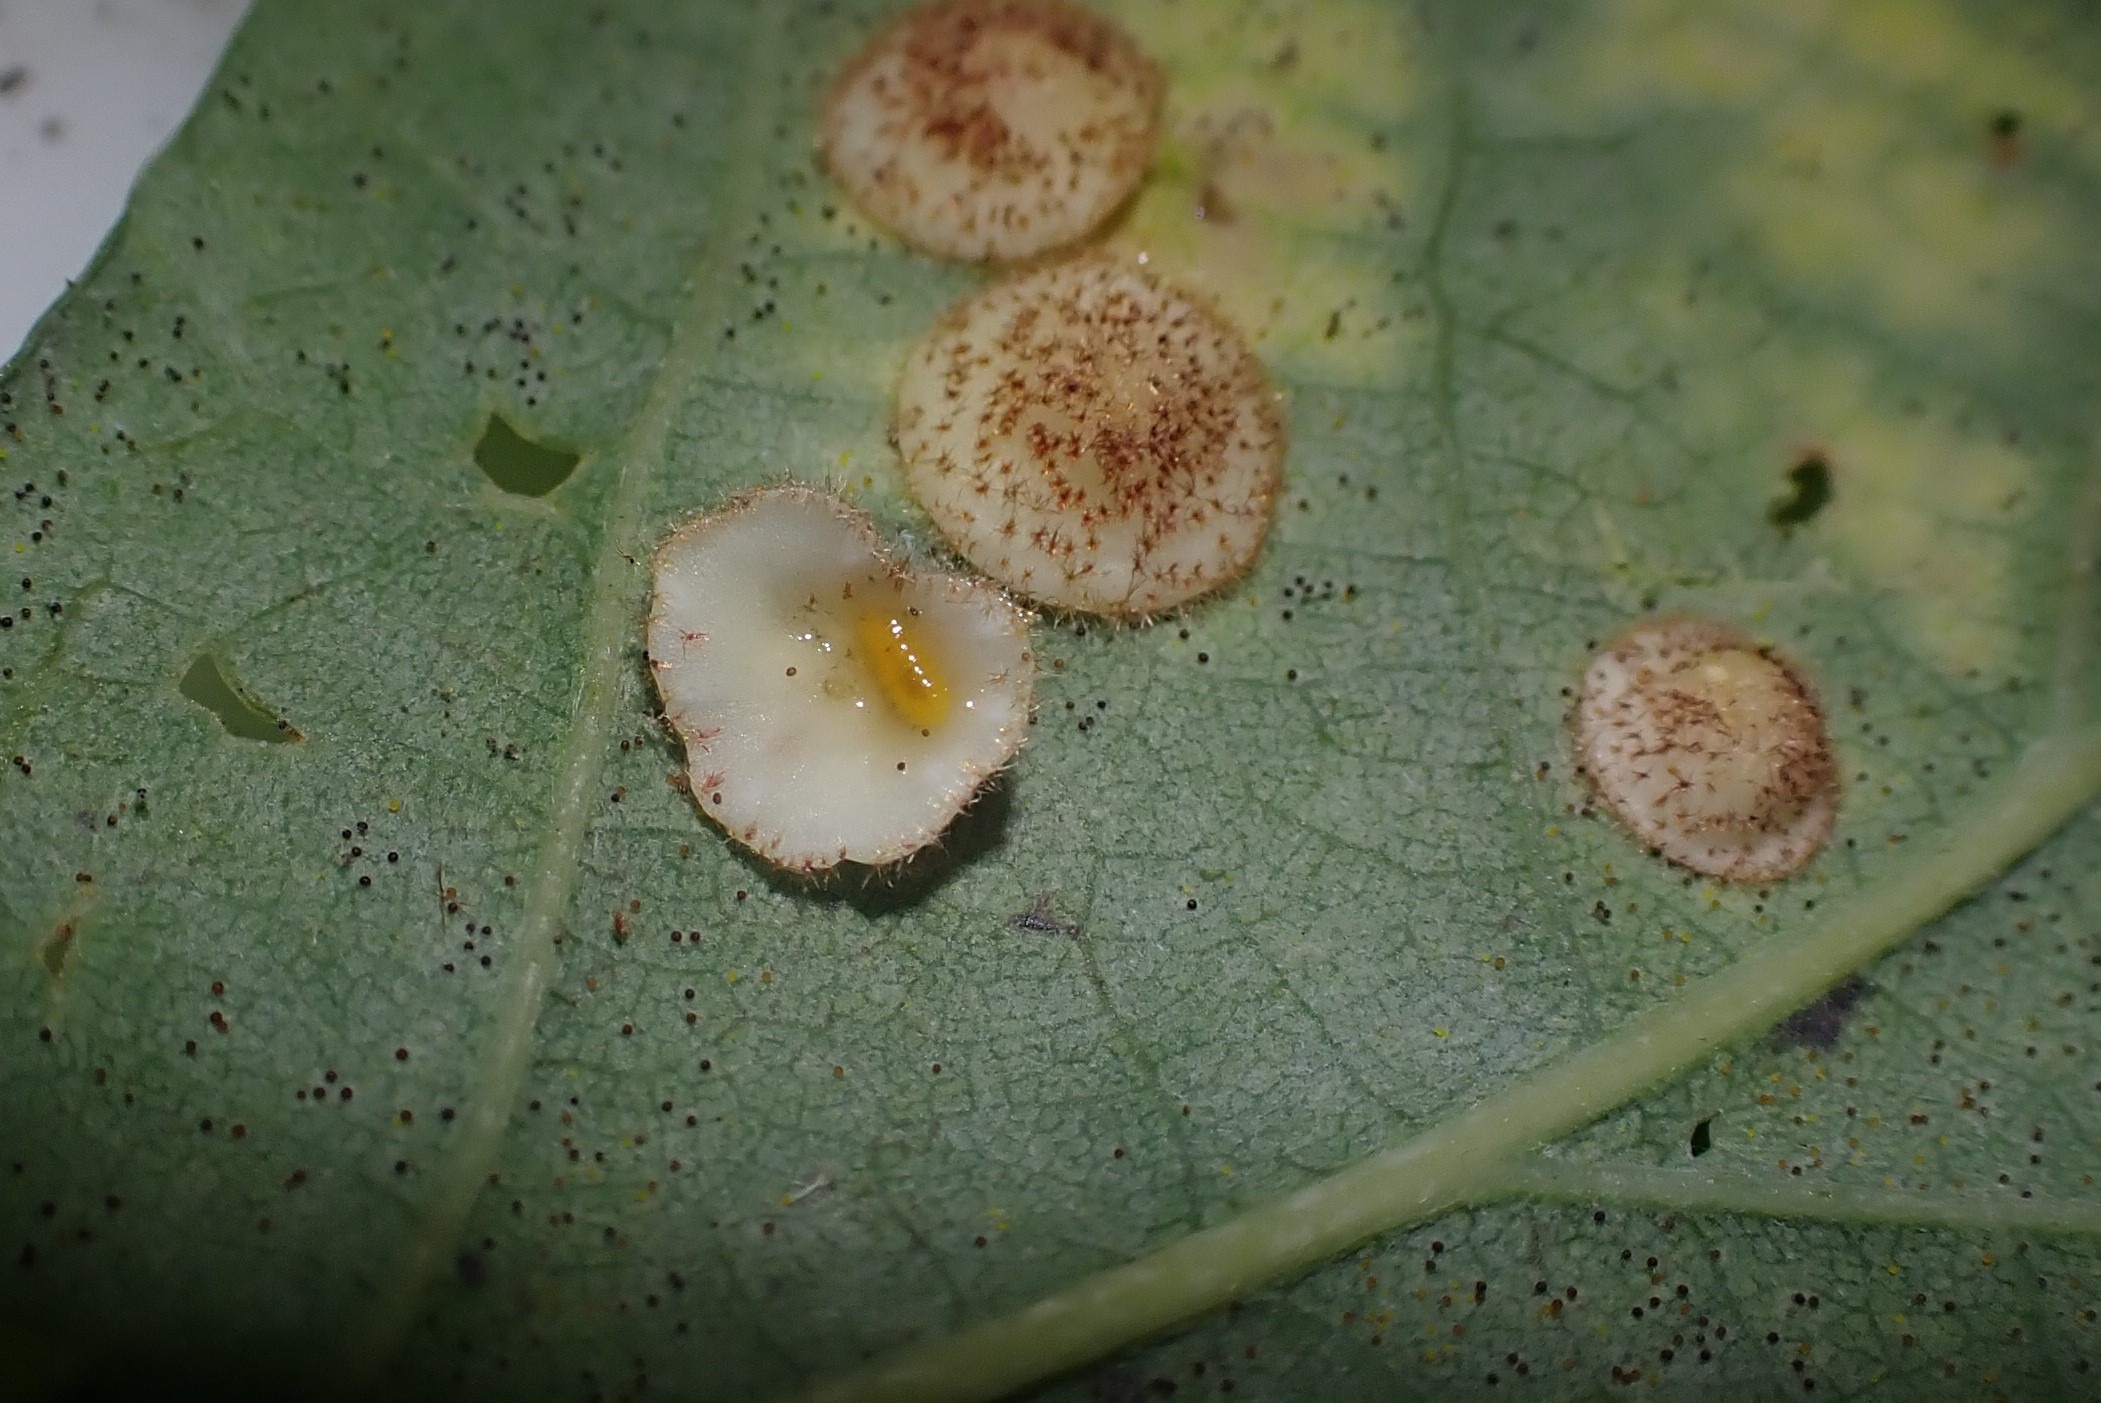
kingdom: Animalia
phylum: Arthropoda
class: Insecta
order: Diptera
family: Cecidomyiidae
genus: Parallelodiplosis
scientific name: Parallelodiplosis galliperda
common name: Underbogalmyg
